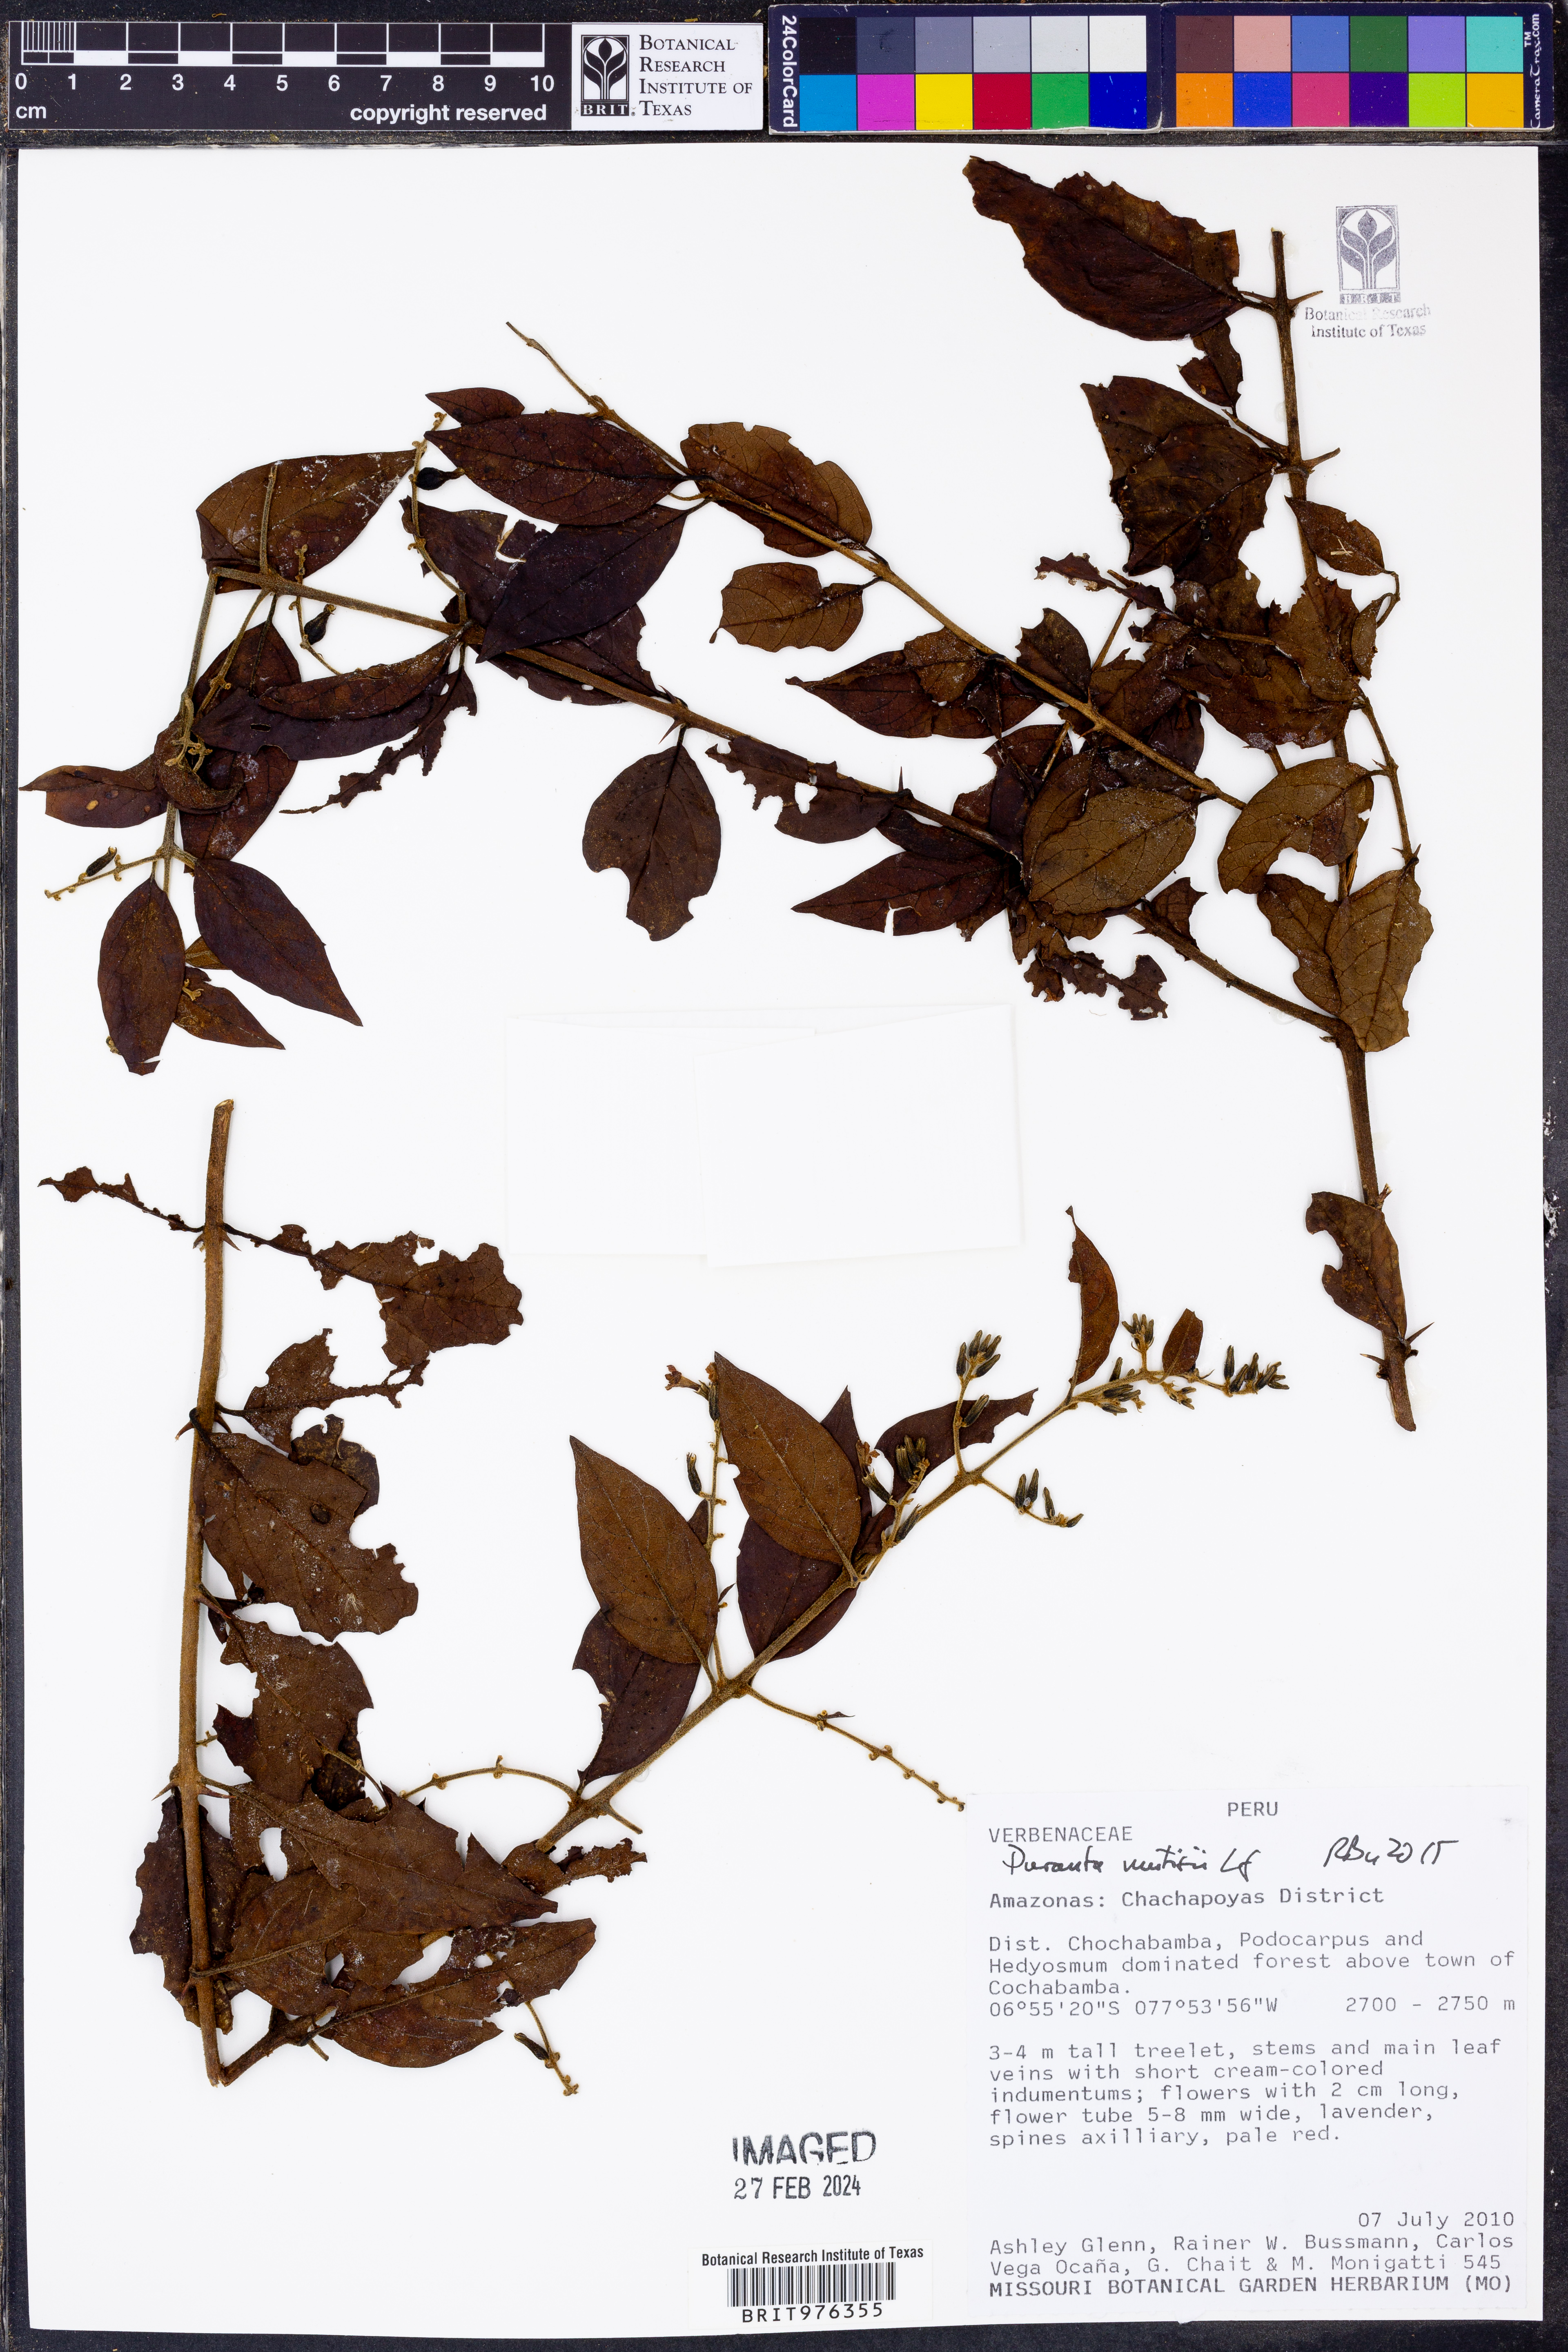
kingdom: Plantae
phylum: Tracheophyta
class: Magnoliopsida
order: Lamiales
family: Verbenaceae
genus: Duranta
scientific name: Duranta
